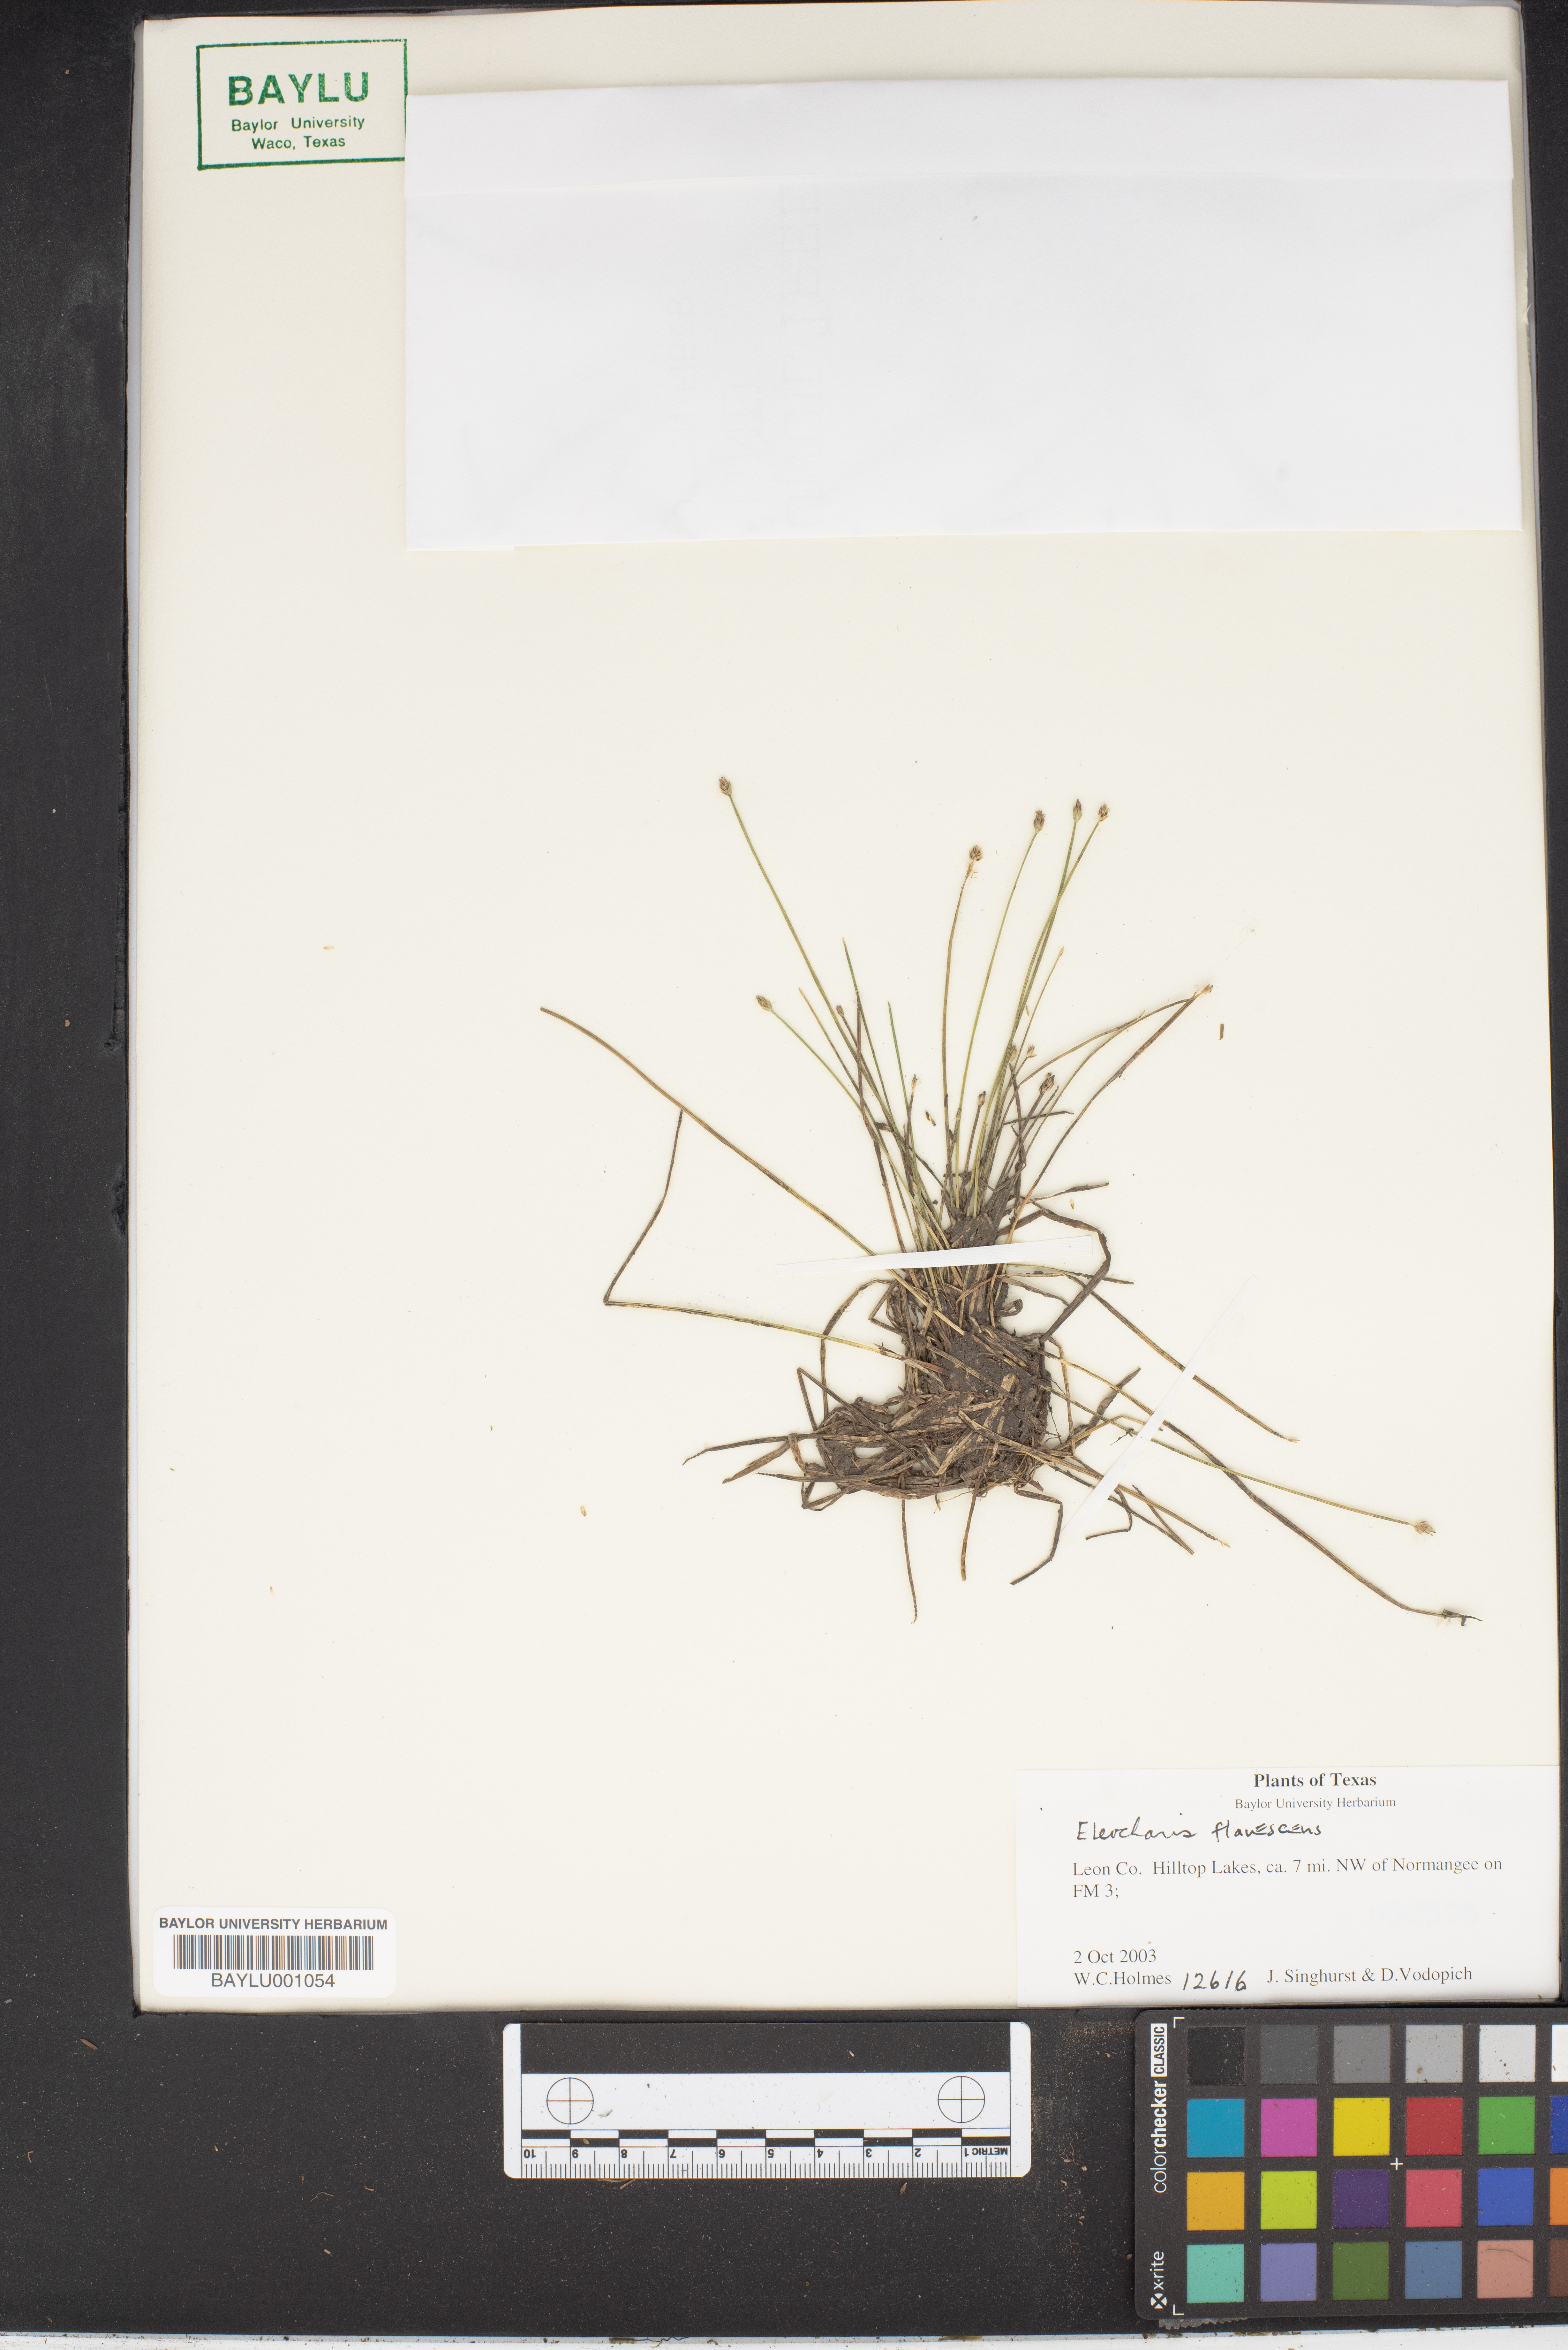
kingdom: Plantae
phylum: Tracheophyta
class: Liliopsida
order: Poales
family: Cyperaceae
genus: Eleocharis
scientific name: Eleocharis flavescens
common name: Yellow spikerush
